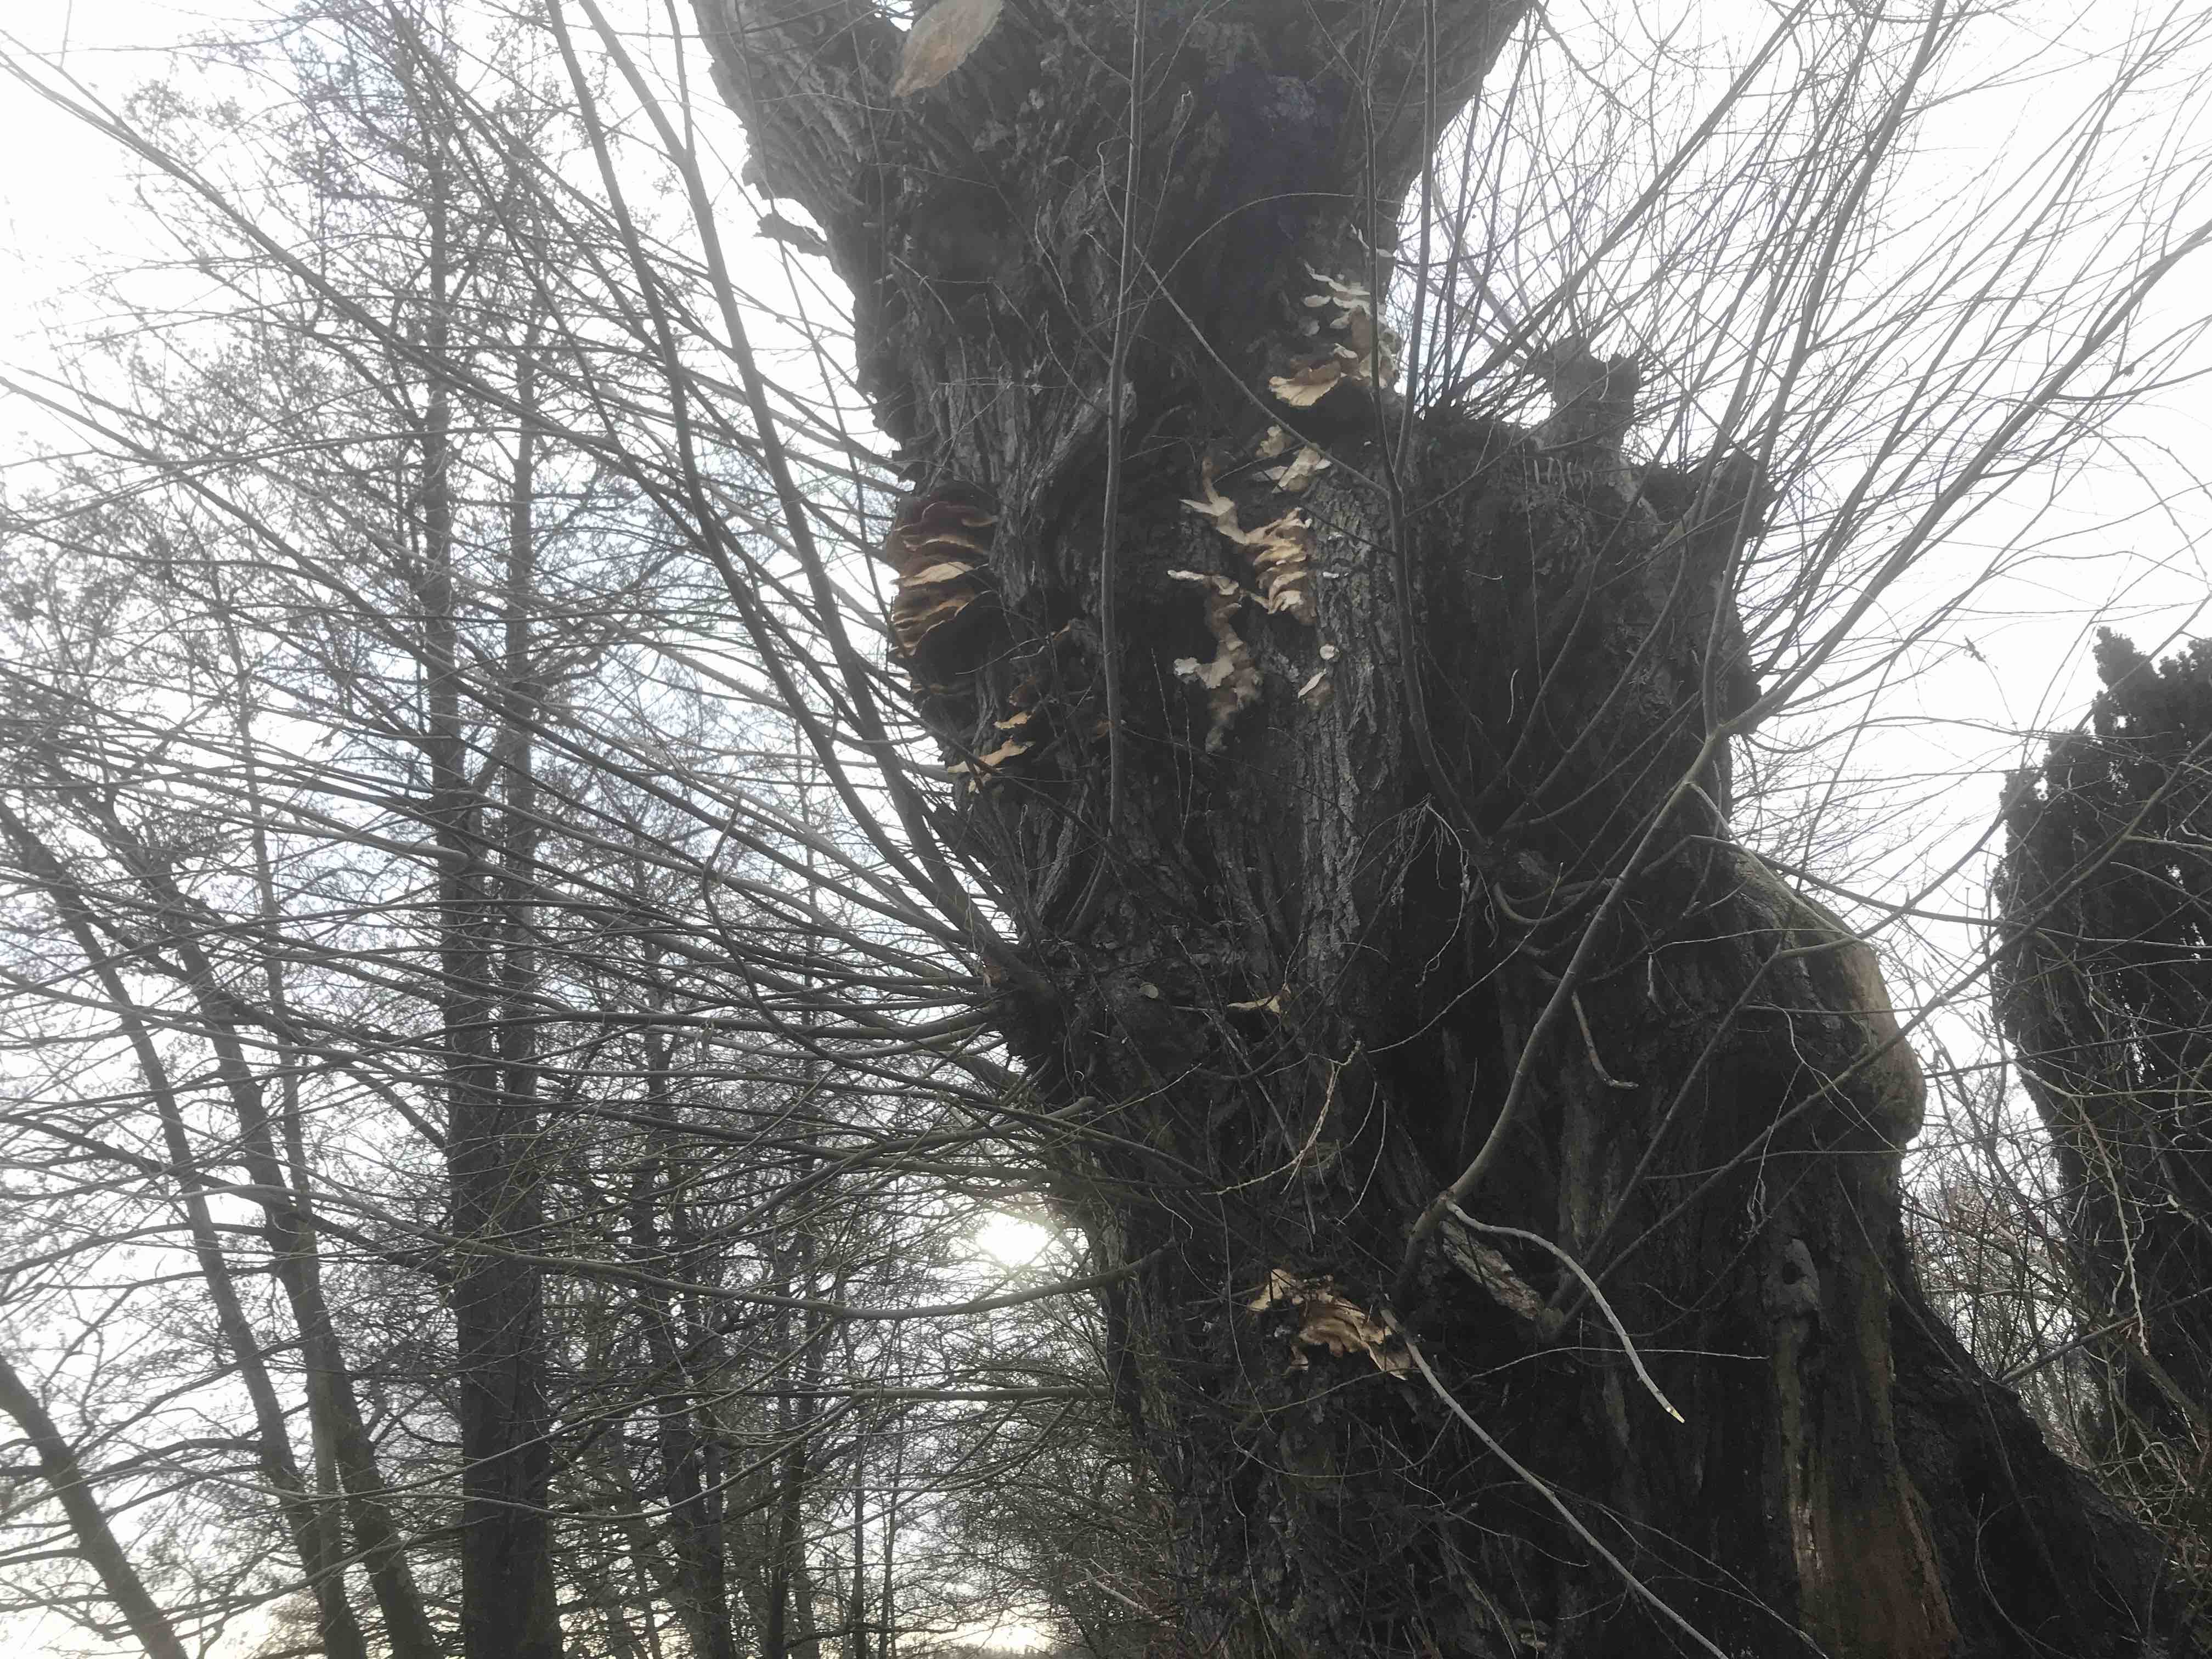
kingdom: Fungi
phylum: Basidiomycota
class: Agaricomycetes
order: Polyporales
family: Laetiporaceae
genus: Laetiporus
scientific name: Laetiporus sulphureus
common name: svovlporesvamp
